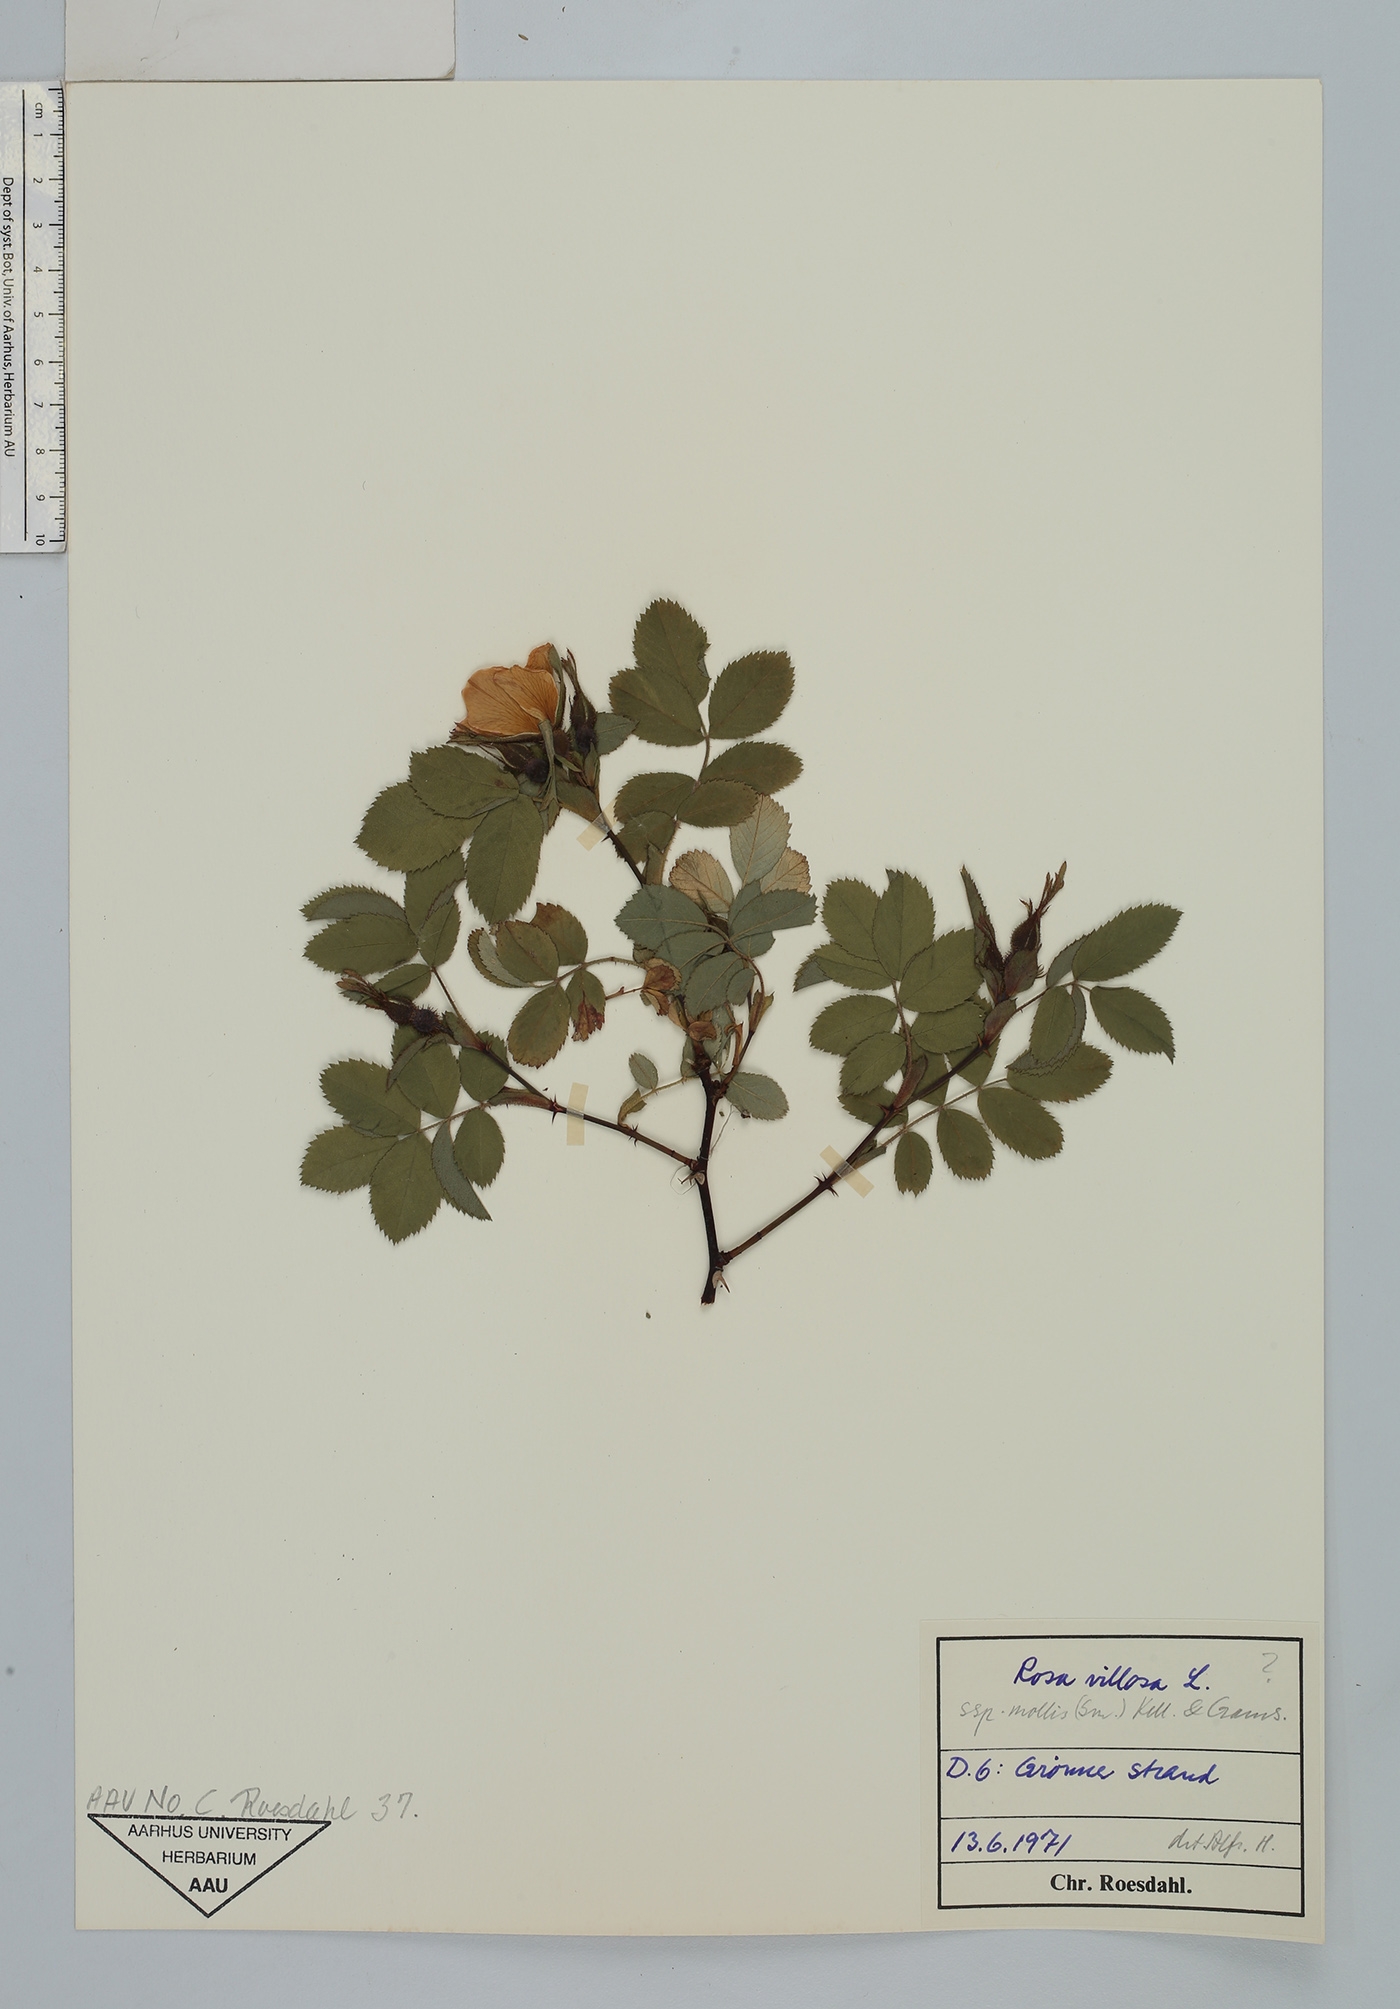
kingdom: Plantae
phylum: Tracheophyta
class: Magnoliopsida
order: Rosales
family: Rosaceae
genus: Rosa
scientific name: Rosa mollis
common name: Rose
